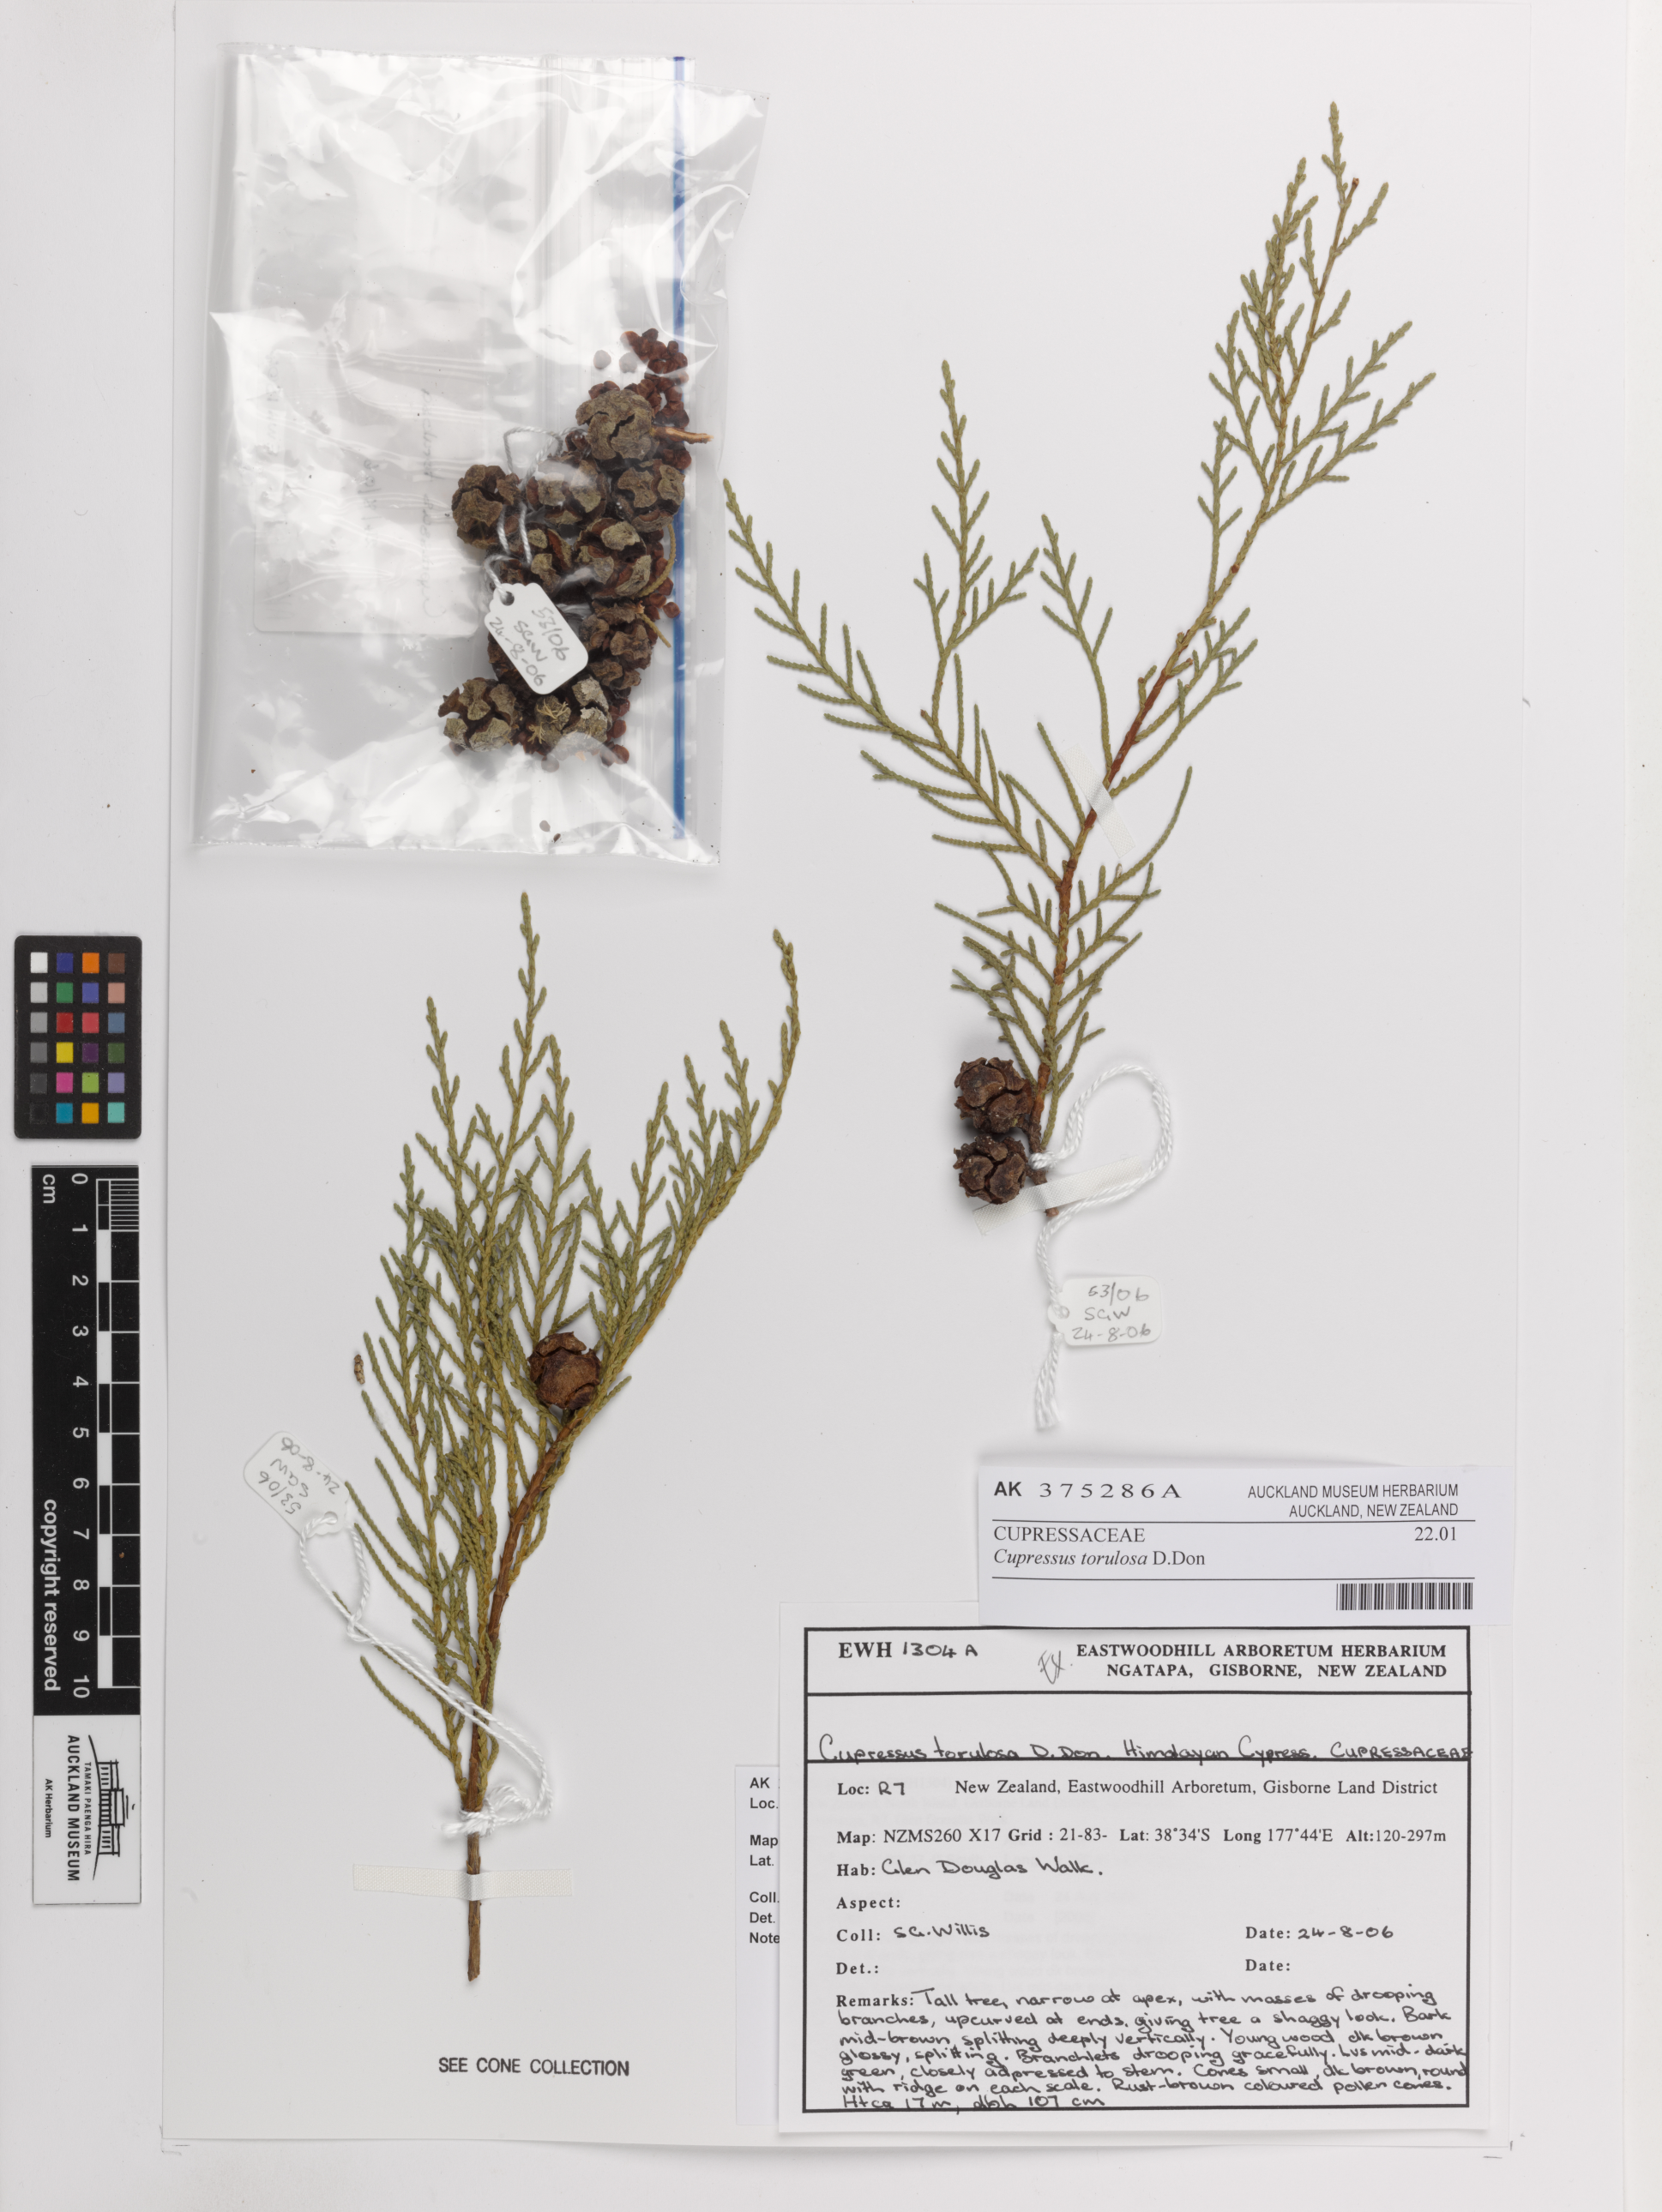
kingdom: Plantae
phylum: Tracheophyta
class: Pinopsida
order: Pinales
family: Cupressaceae
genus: Cupressus
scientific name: Cupressus torulosa
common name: Himalayan cypress
